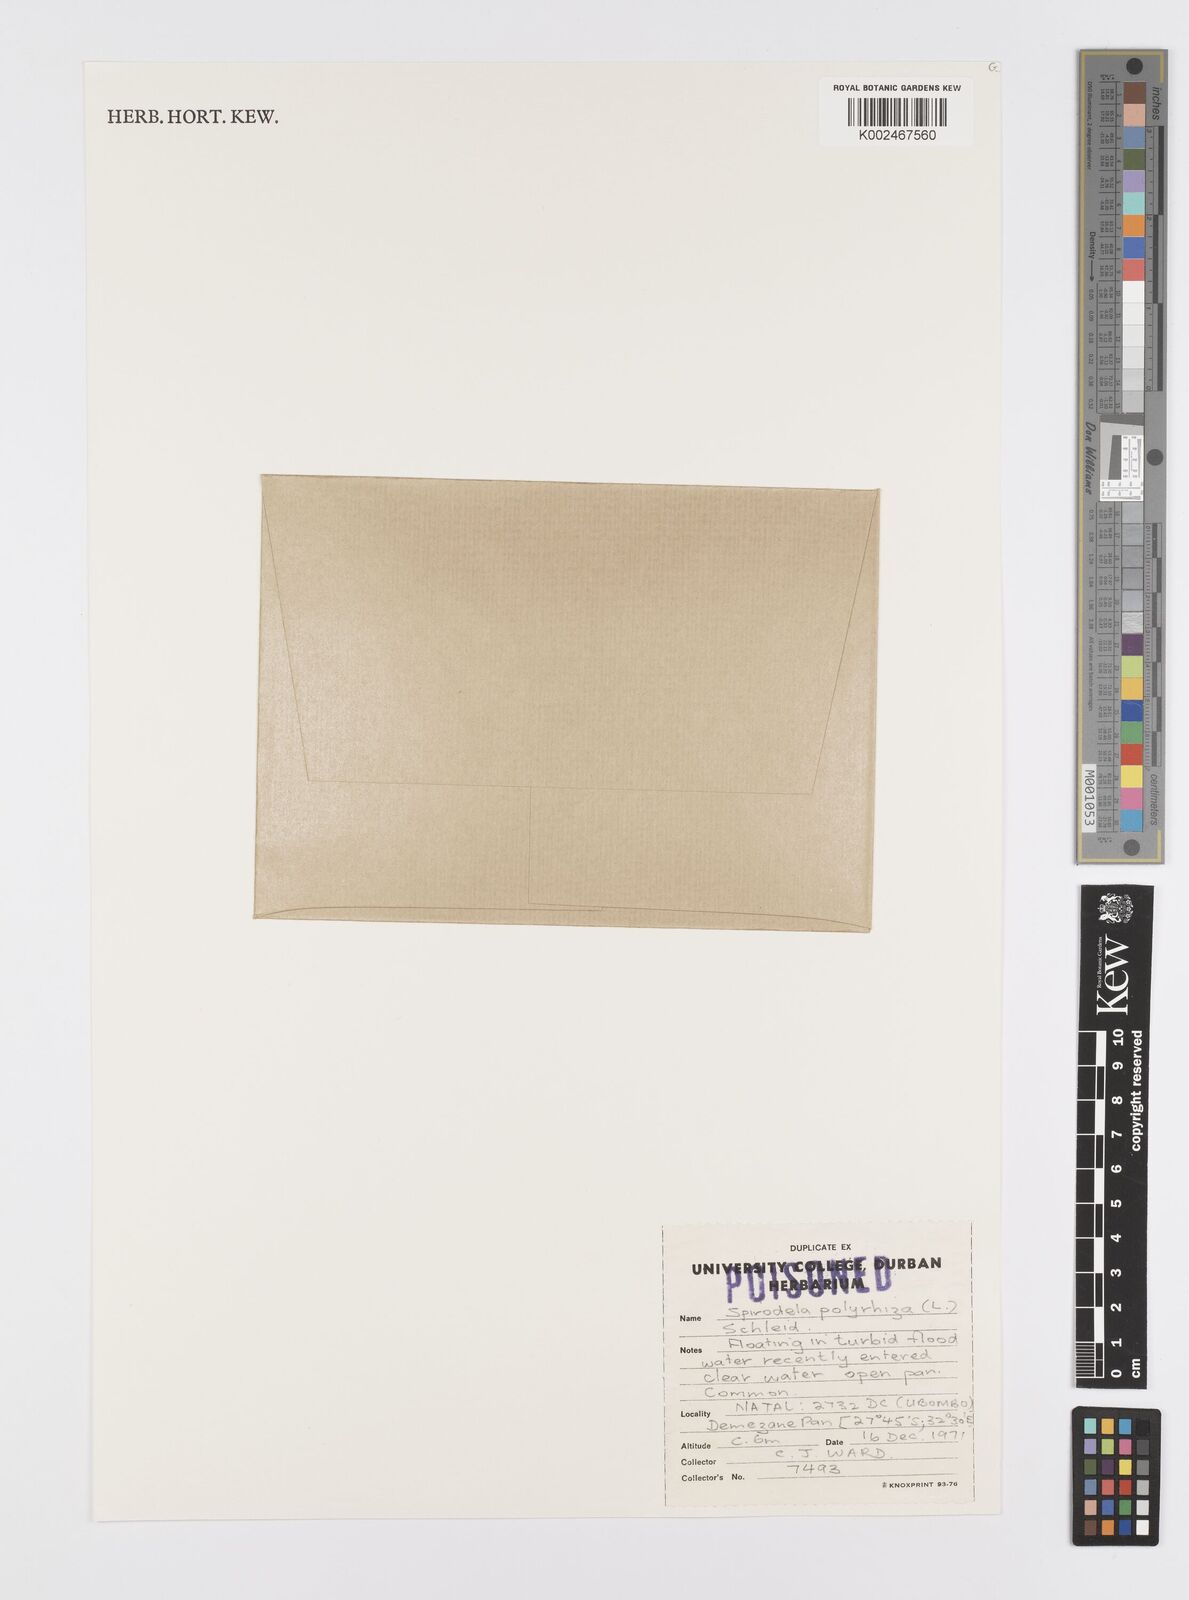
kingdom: Plantae
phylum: Tracheophyta
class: Liliopsida
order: Alismatales
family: Araceae
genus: Spirodela
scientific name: Spirodela polyrhiza
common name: Great duckweed
